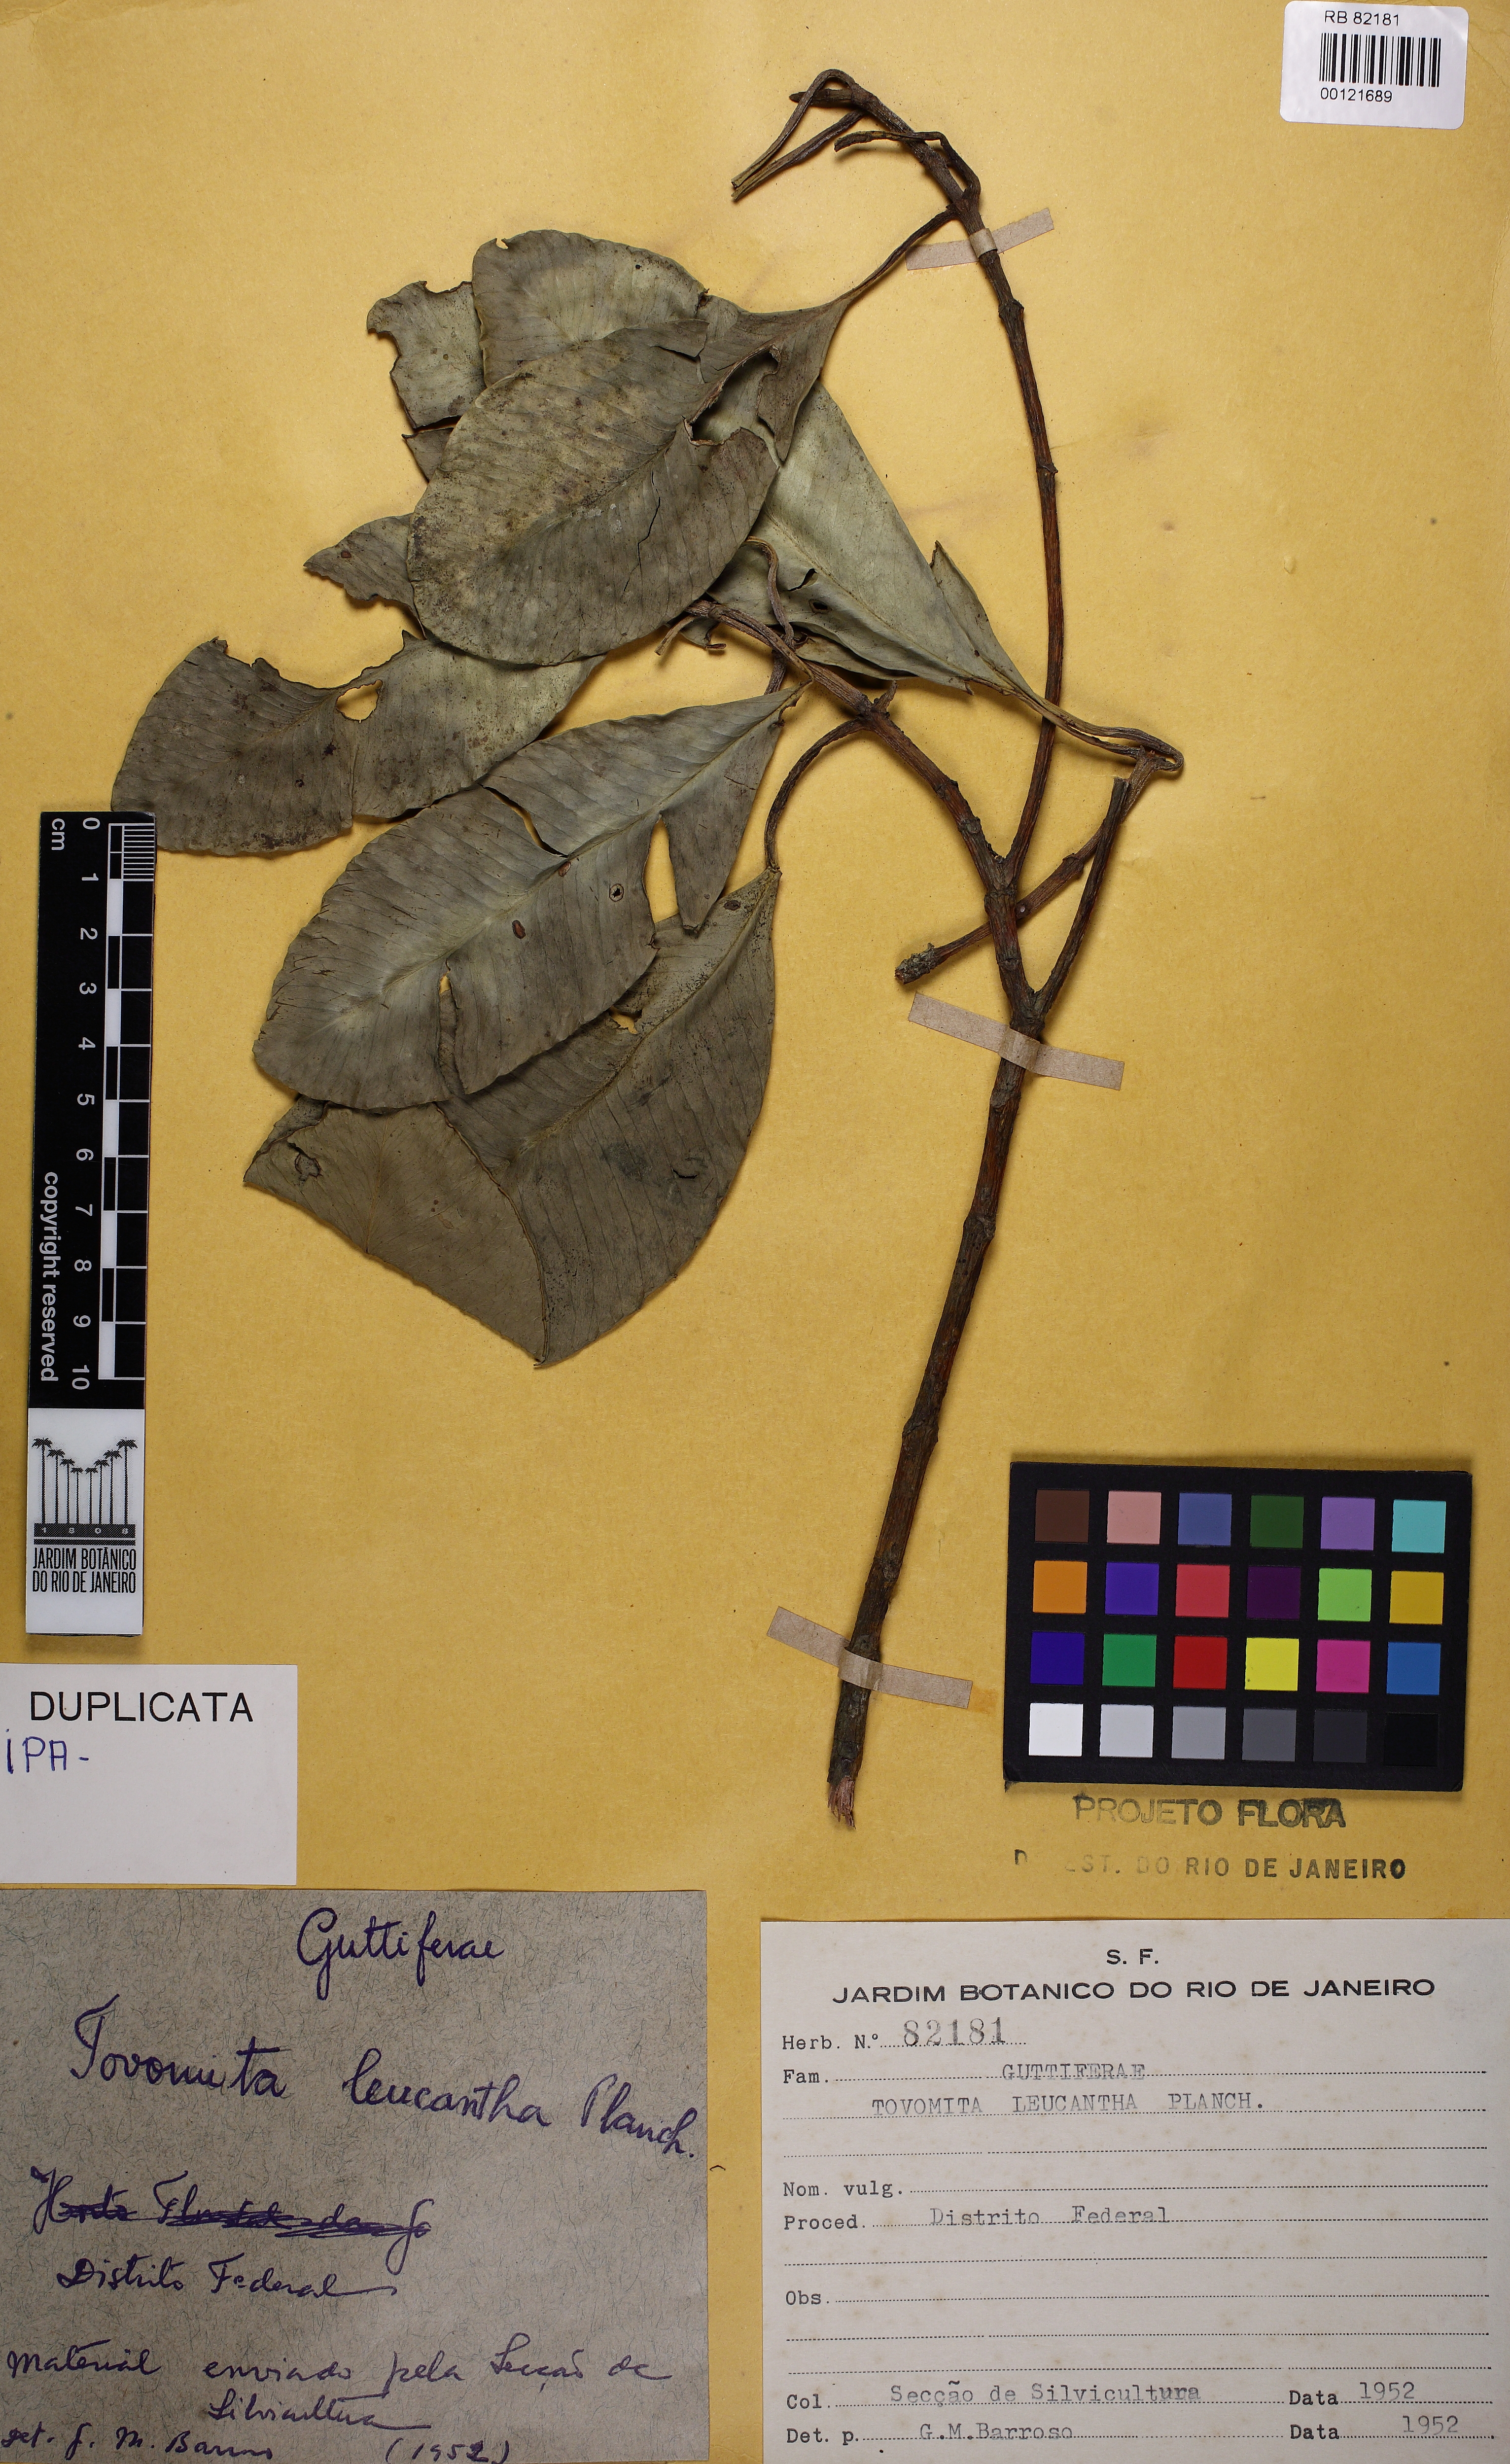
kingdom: Plantae
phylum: Tracheophyta
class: Magnoliopsida
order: Malpighiales
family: Clusiaceae
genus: Tovomita
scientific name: Tovomita leucantha
